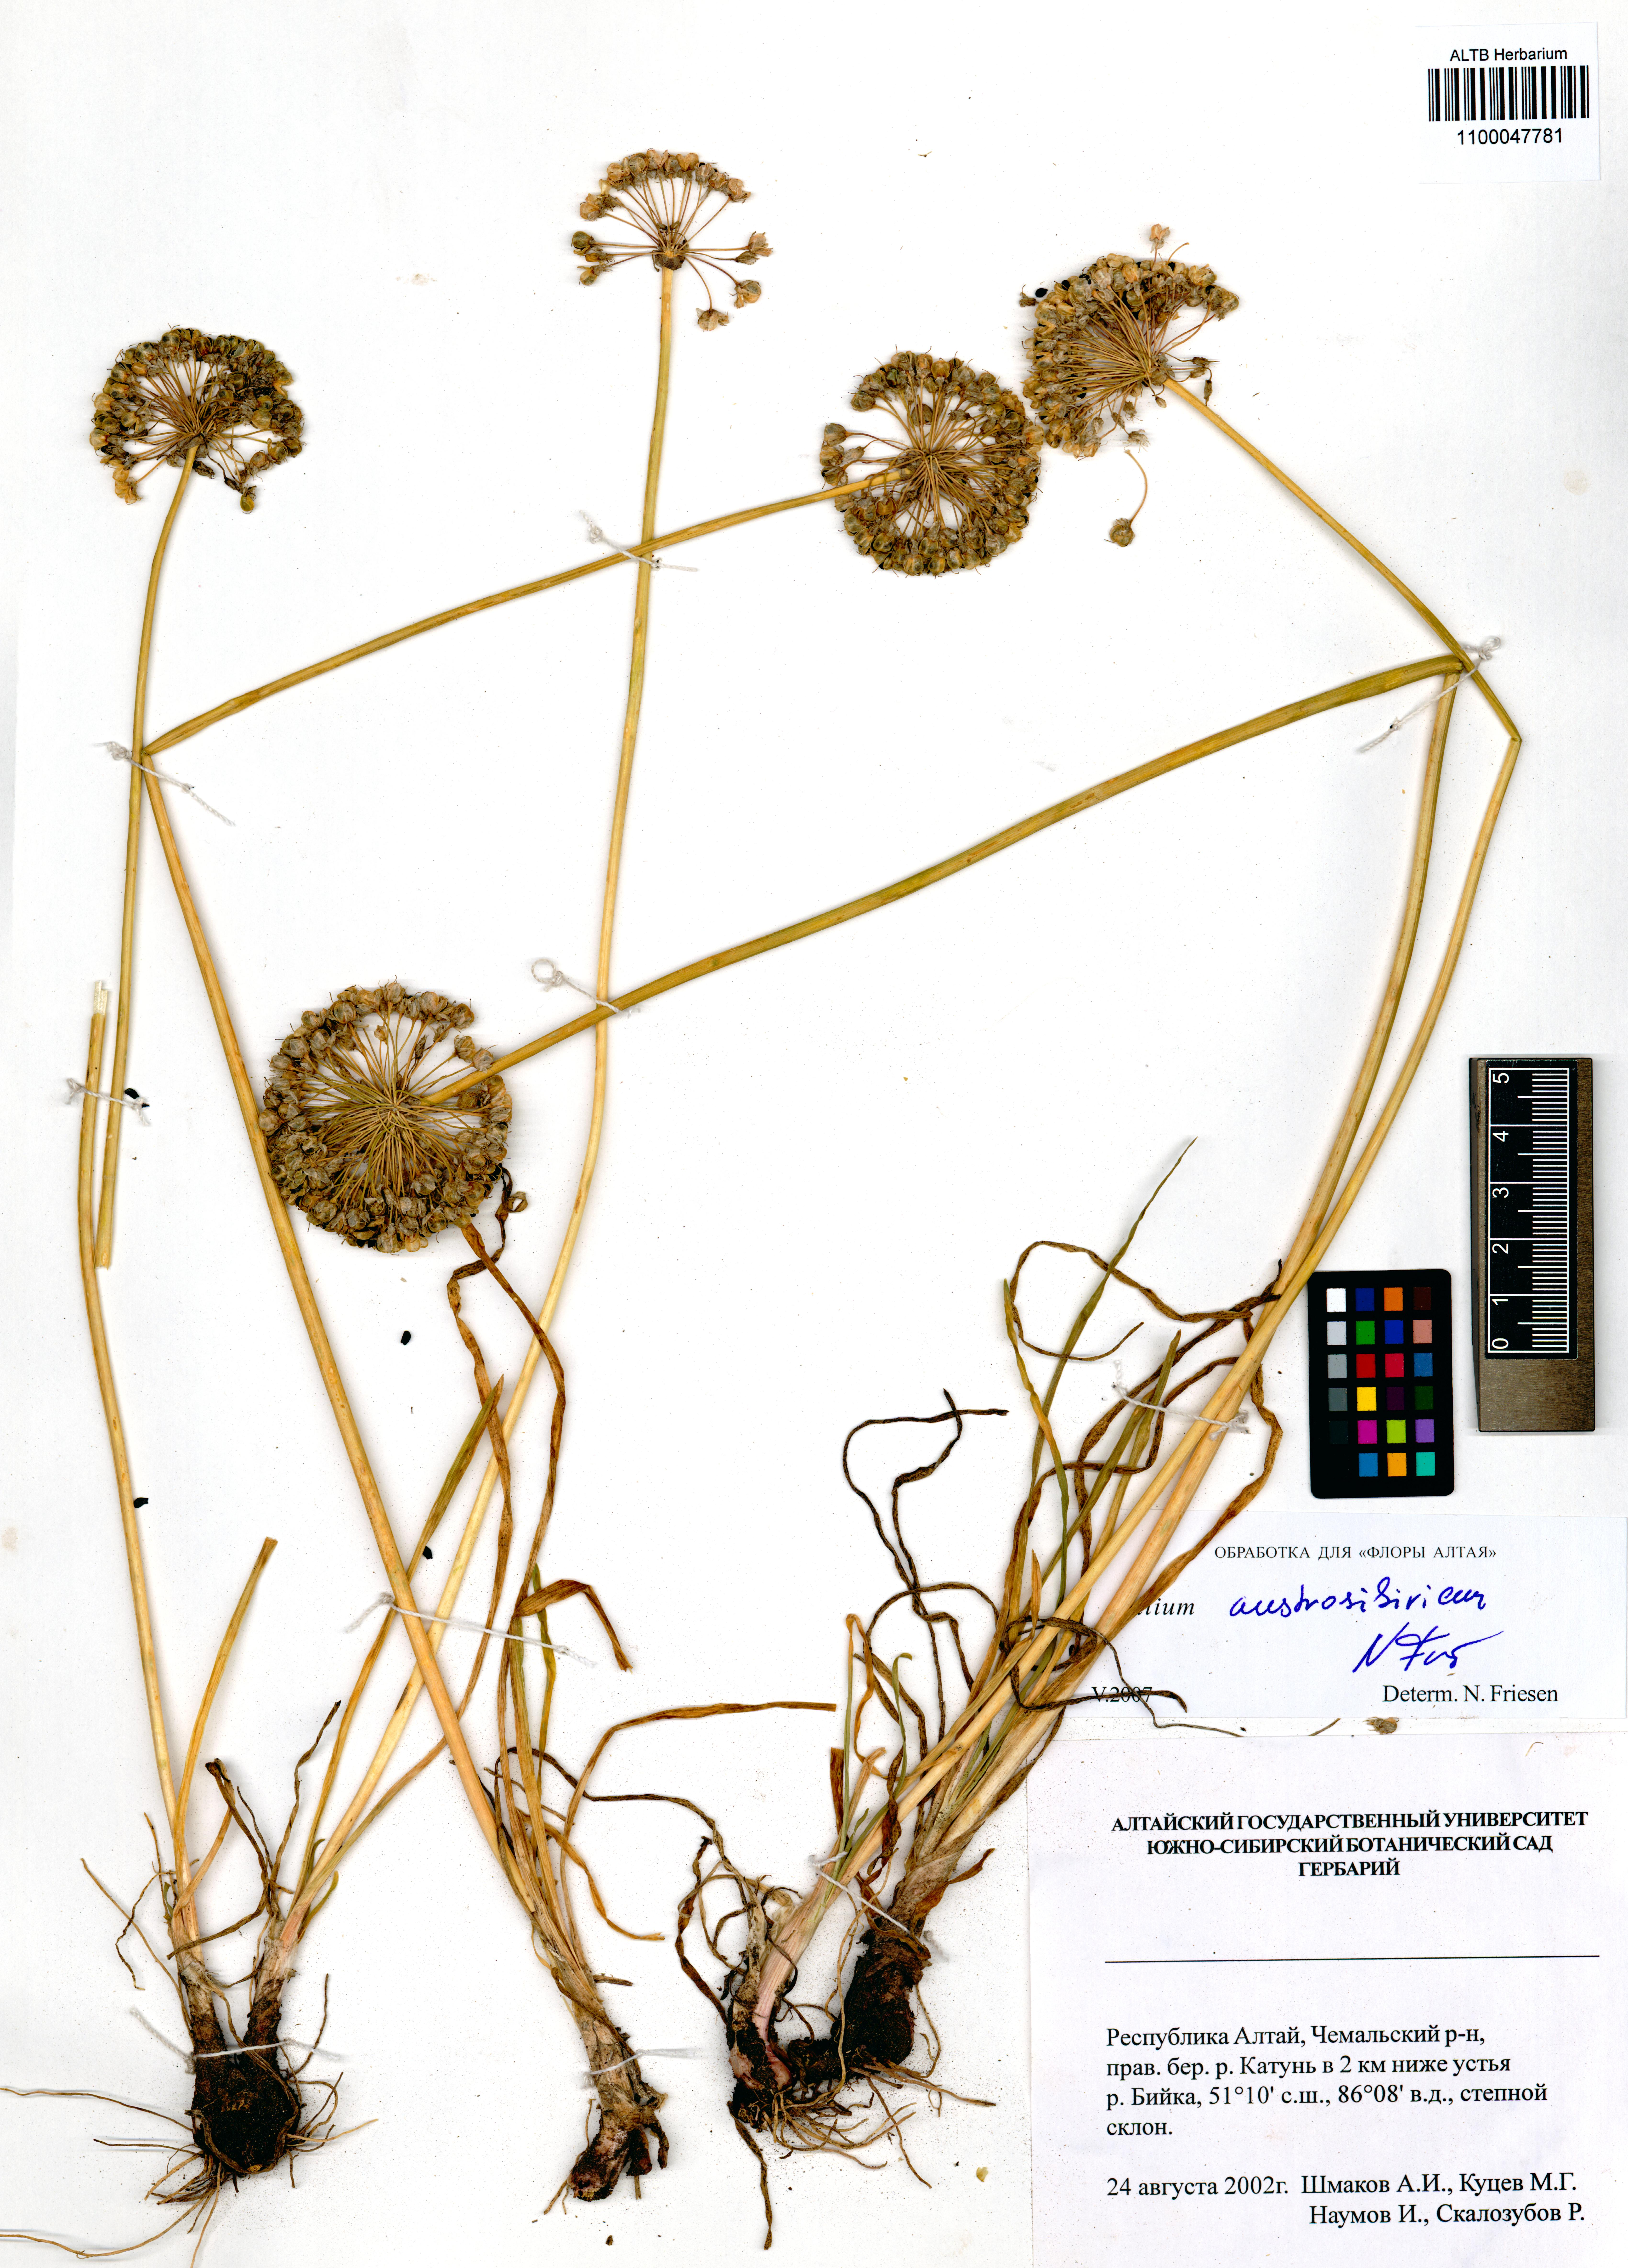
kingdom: Plantae
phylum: Tracheophyta
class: Liliopsida
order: Asparagales
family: Amaryllidaceae
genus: Allium
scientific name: Allium austrosibiricum
